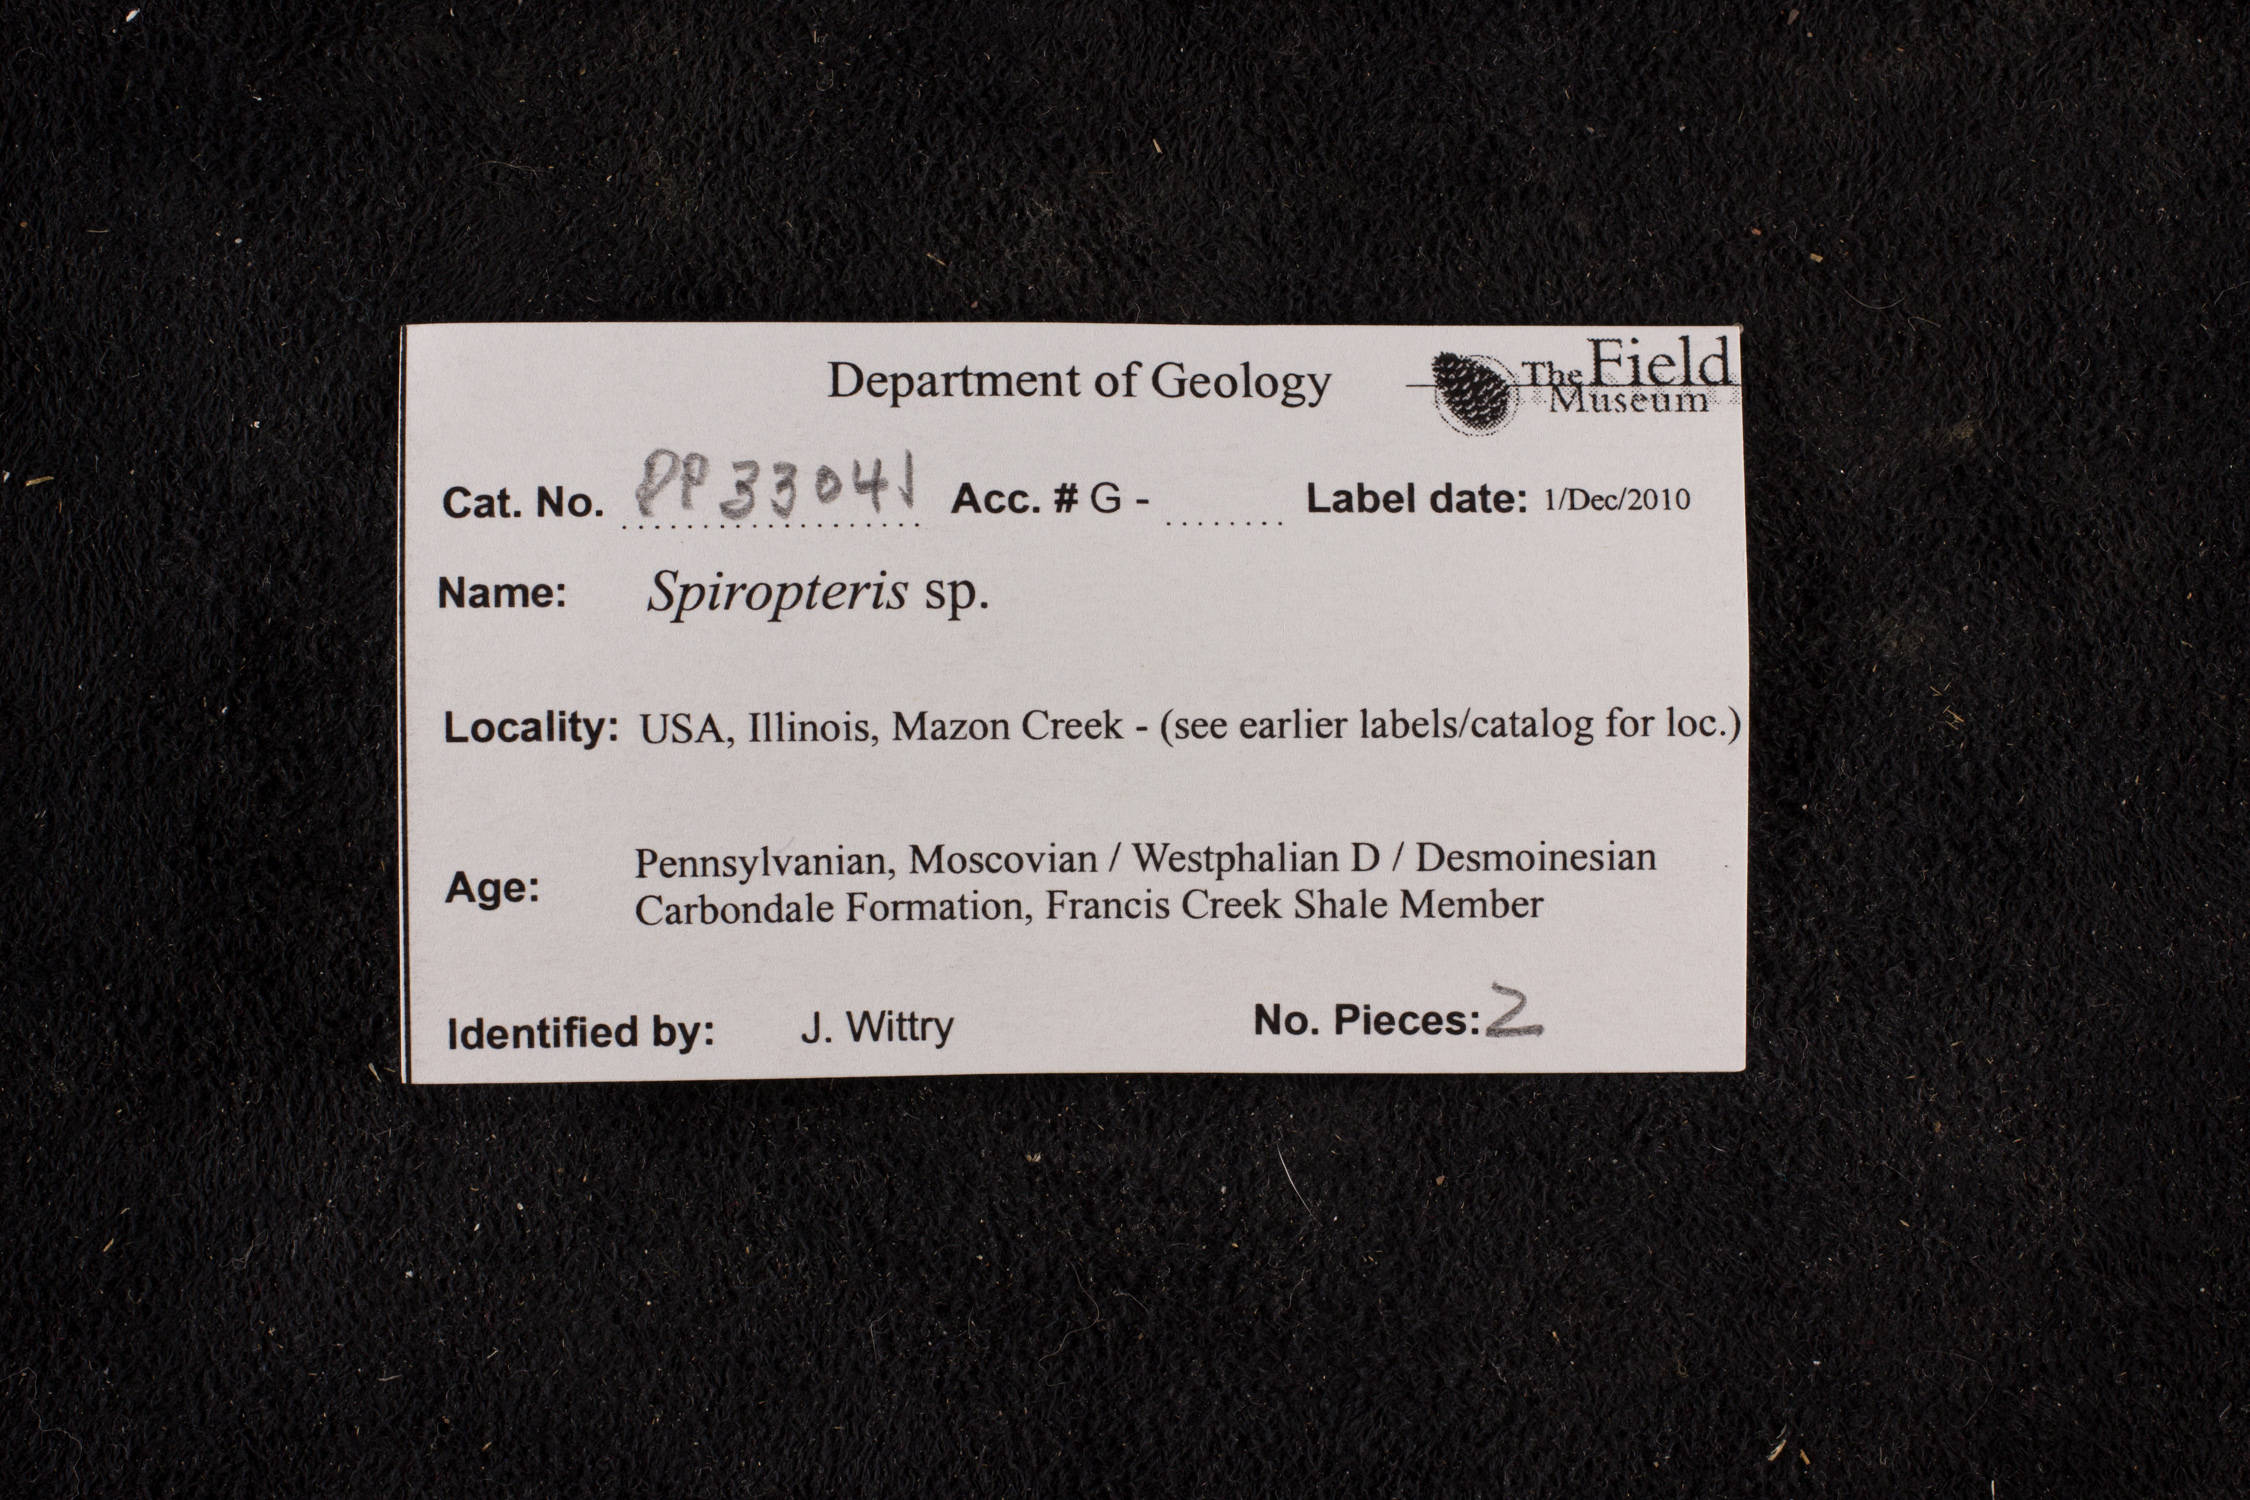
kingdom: Plantae
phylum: Tracheophyta
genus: Spiropteris
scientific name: Spiropteris
